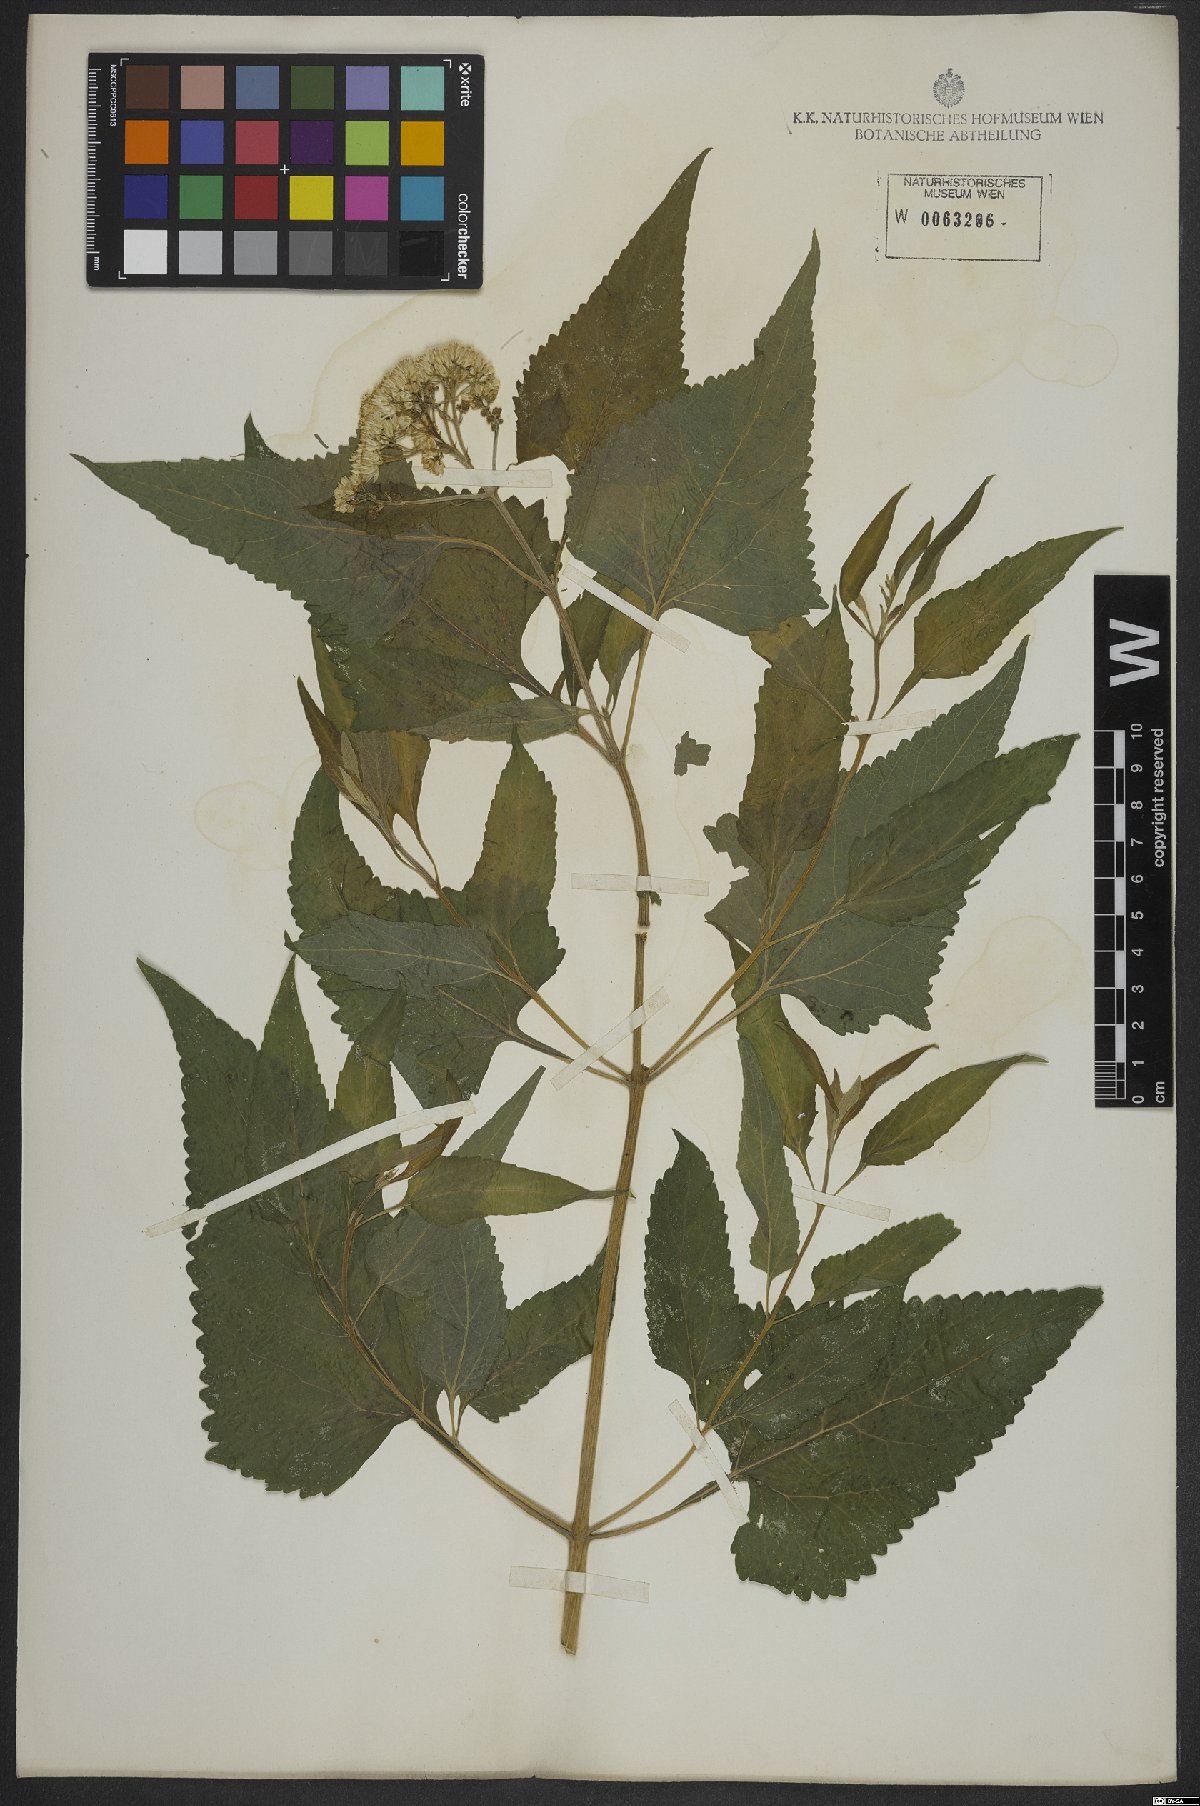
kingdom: Plantae
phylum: Tracheophyta
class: Magnoliopsida
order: Asterales
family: Asteraceae
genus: Austroeupatorium
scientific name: Austroeupatorium inulifolium
